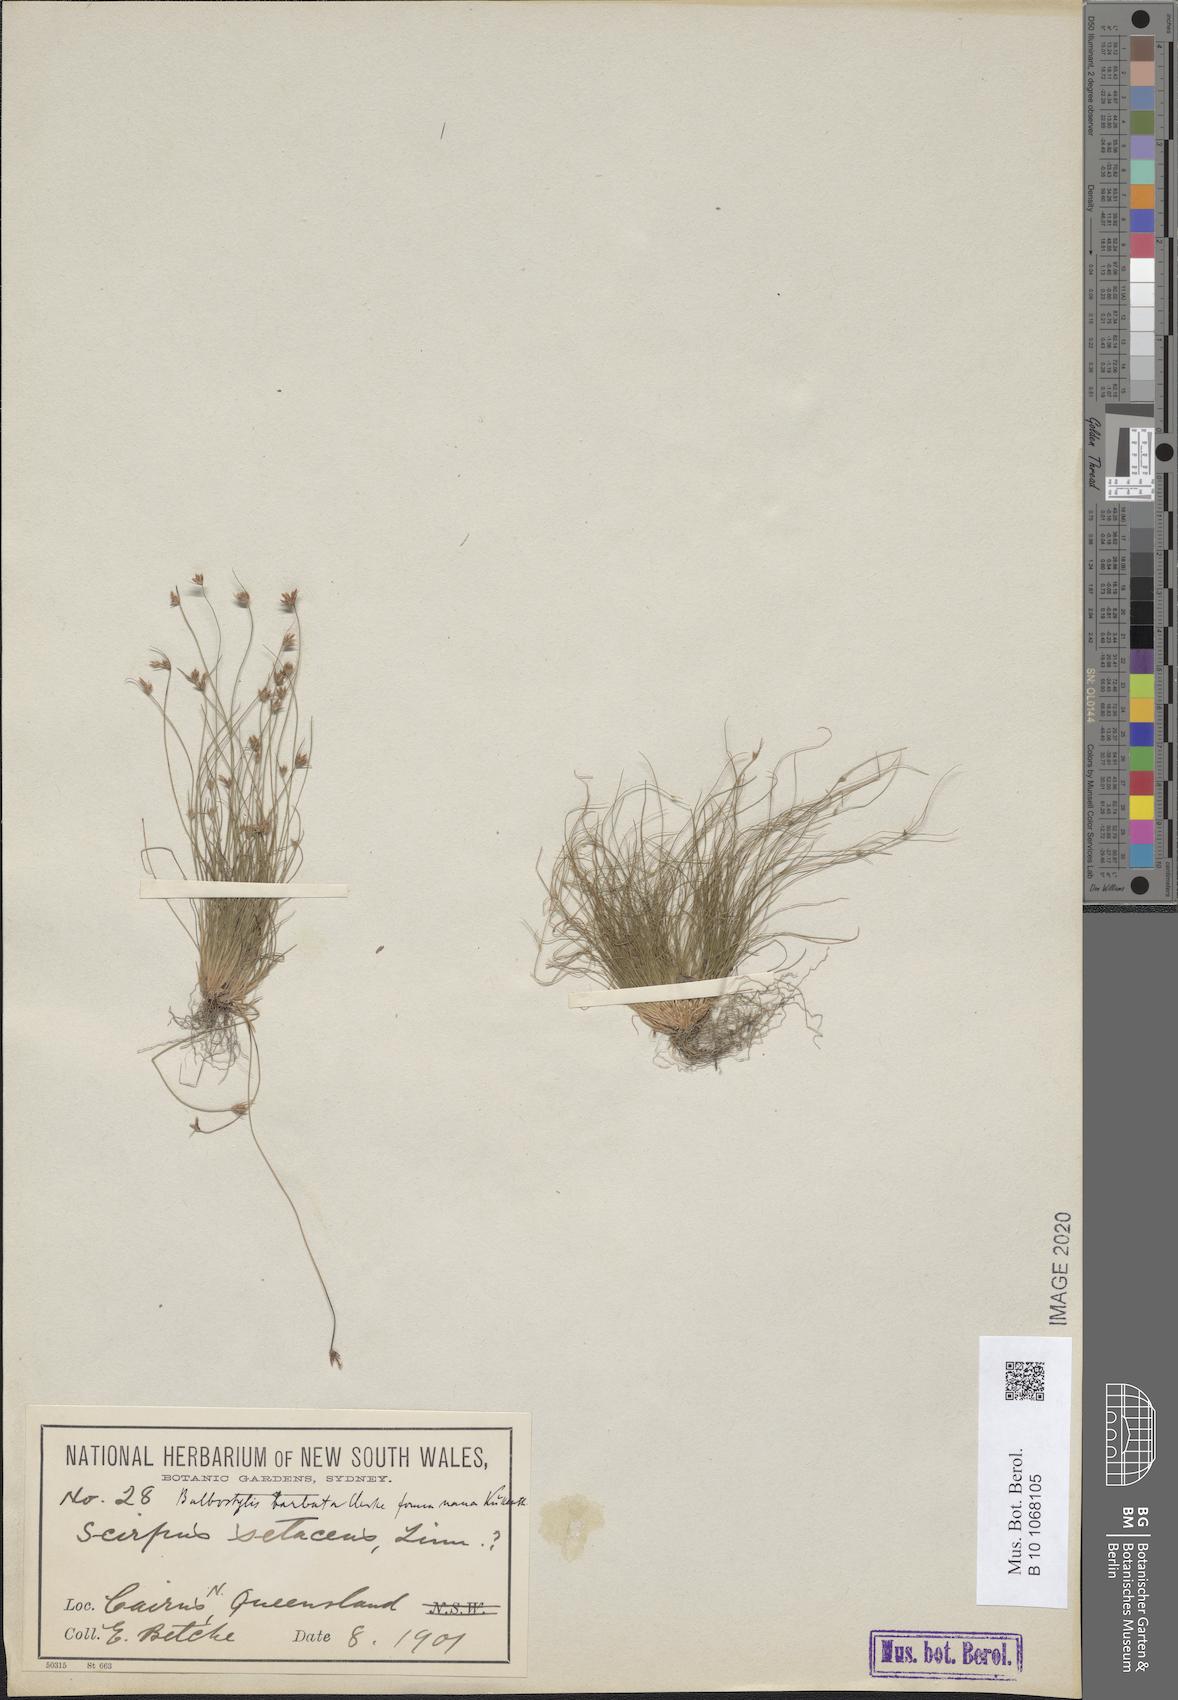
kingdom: Plantae
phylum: Tracheophyta
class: Liliopsida
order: Poales
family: Cyperaceae
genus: Bulbostylis
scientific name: Bulbostylis barbata
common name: Watergrass
